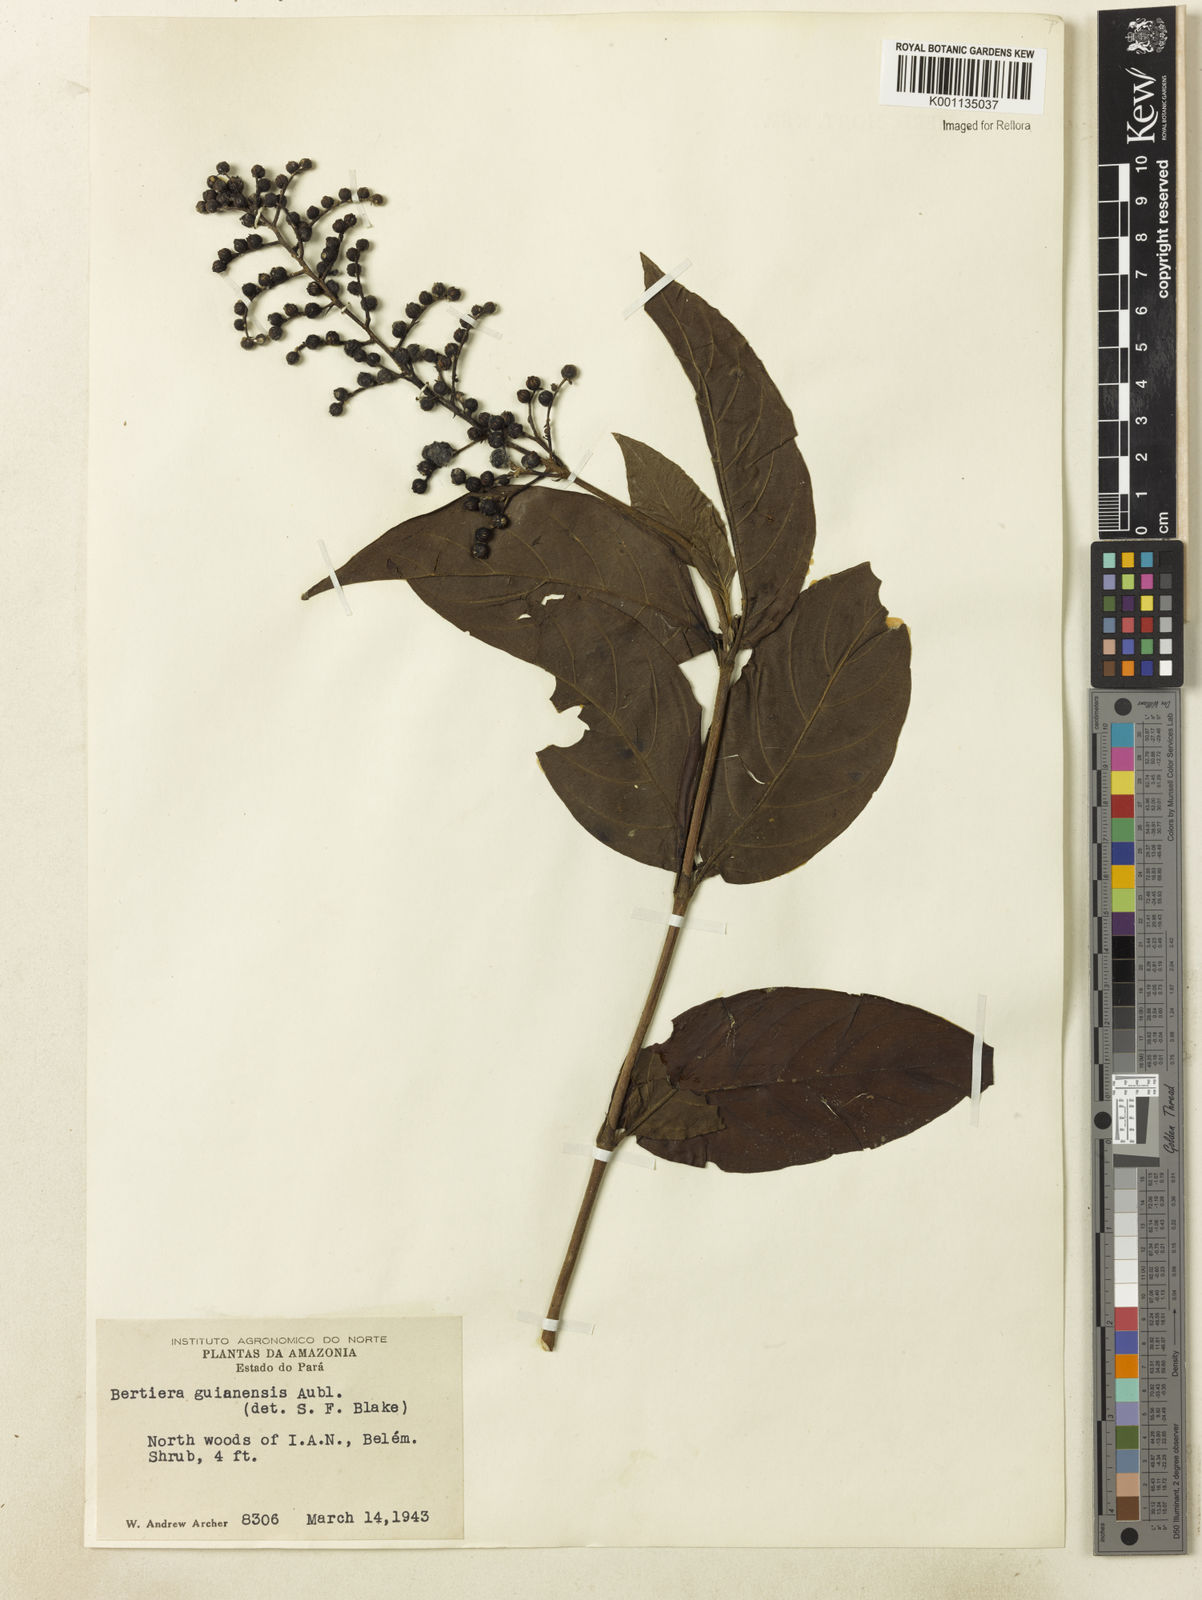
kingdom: Plantae
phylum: Tracheophyta
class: Magnoliopsida
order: Gentianales
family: Rubiaceae
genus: Bertiera
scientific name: Bertiera guianensis
